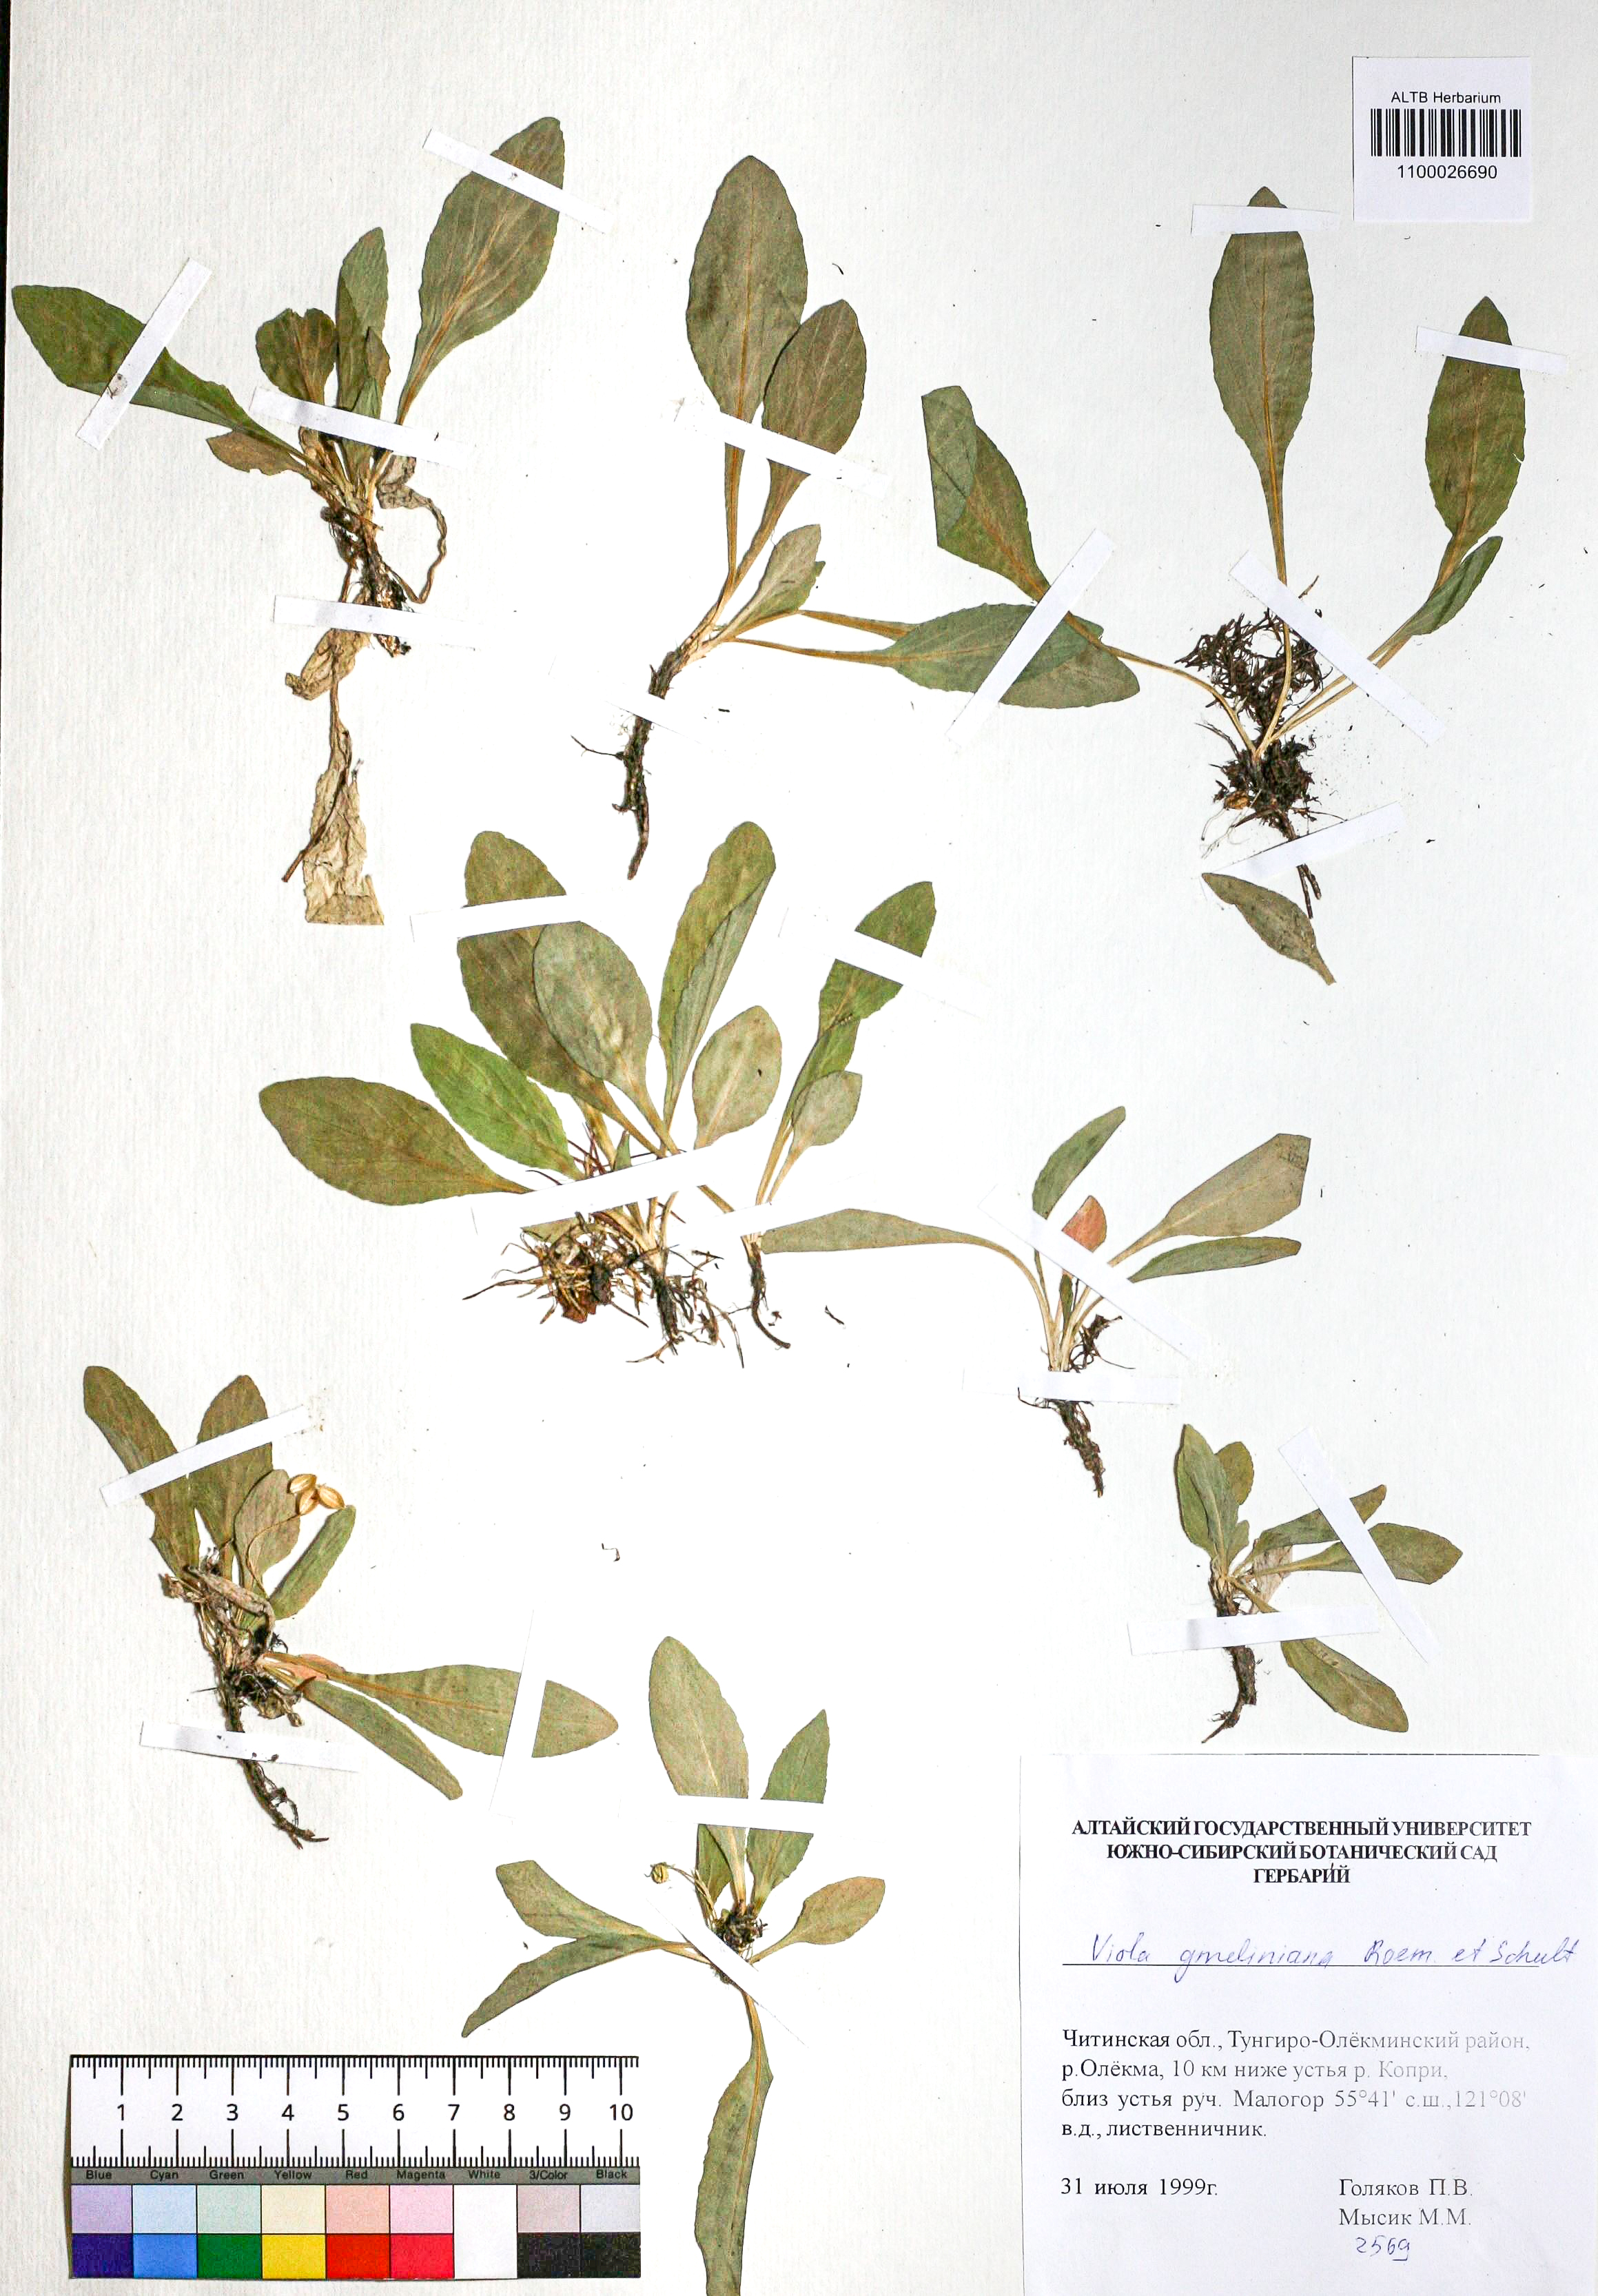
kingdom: Plantae
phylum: Tracheophyta
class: Magnoliopsida
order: Malpighiales
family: Violaceae
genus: Viola
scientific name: Viola gmeliniana
